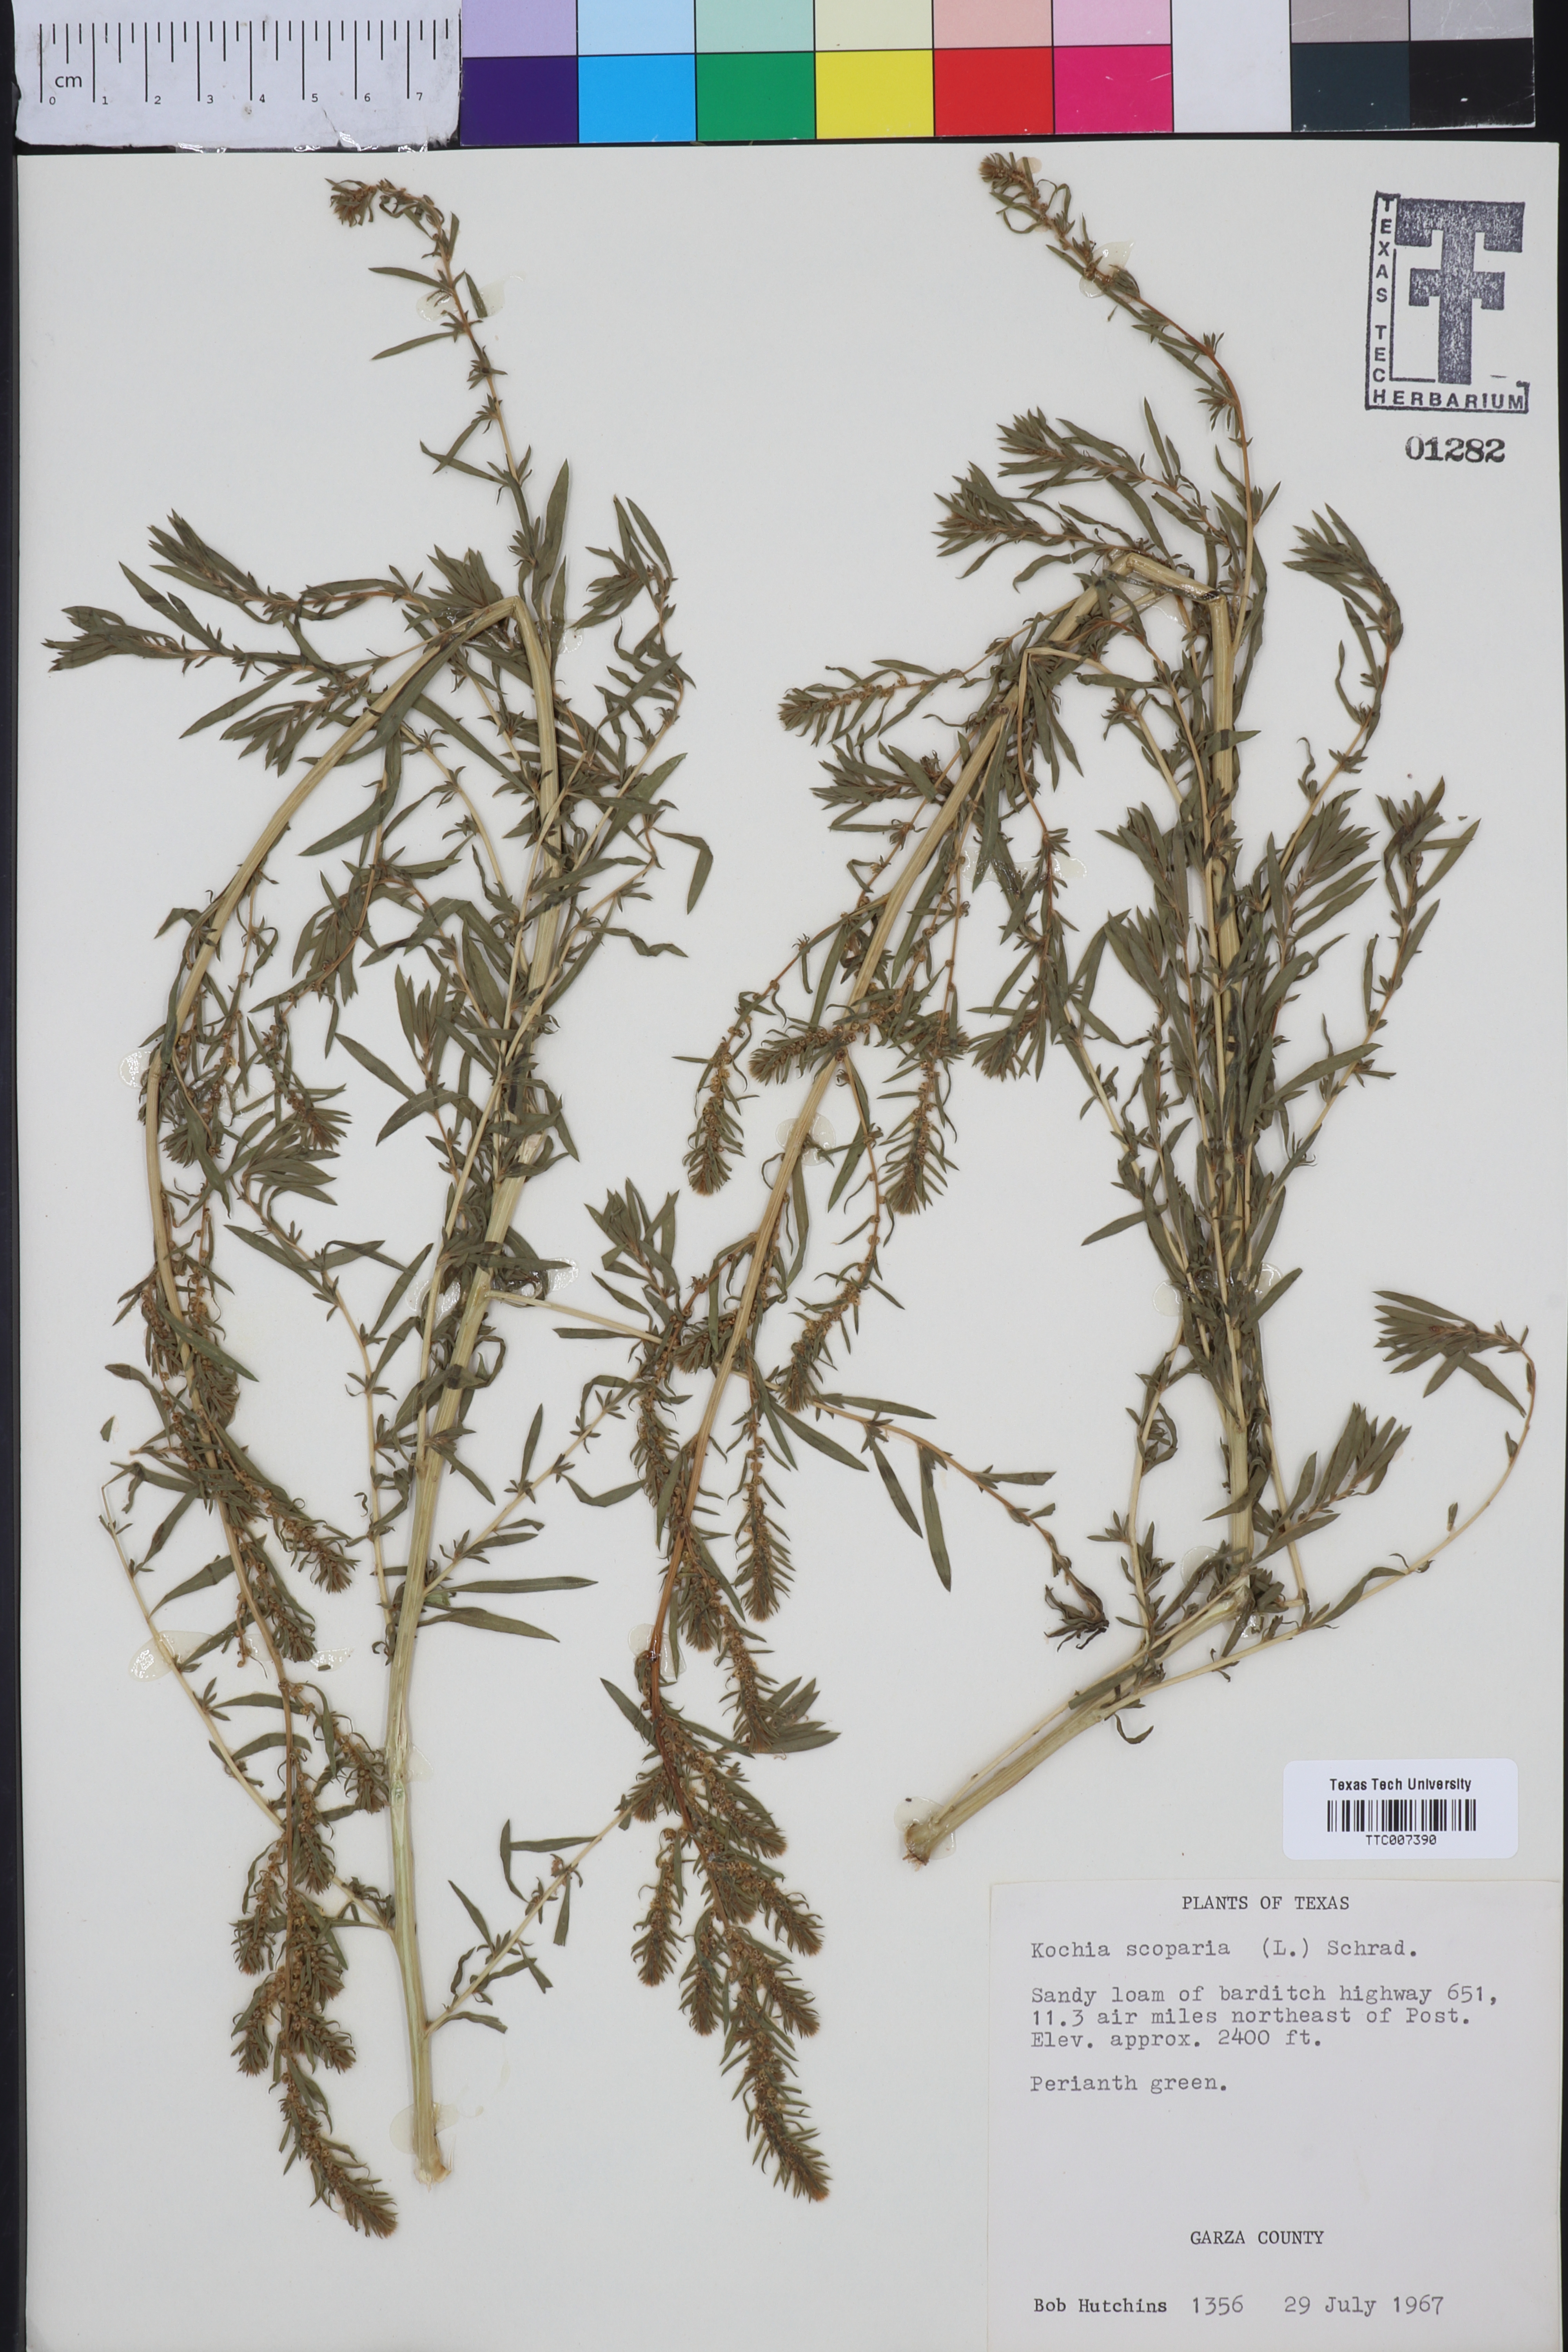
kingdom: Plantae
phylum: Tracheophyta
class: Magnoliopsida
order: Caryophyllales
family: Amaranthaceae
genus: Bassia
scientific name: Bassia scoparia
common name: Belvedere
